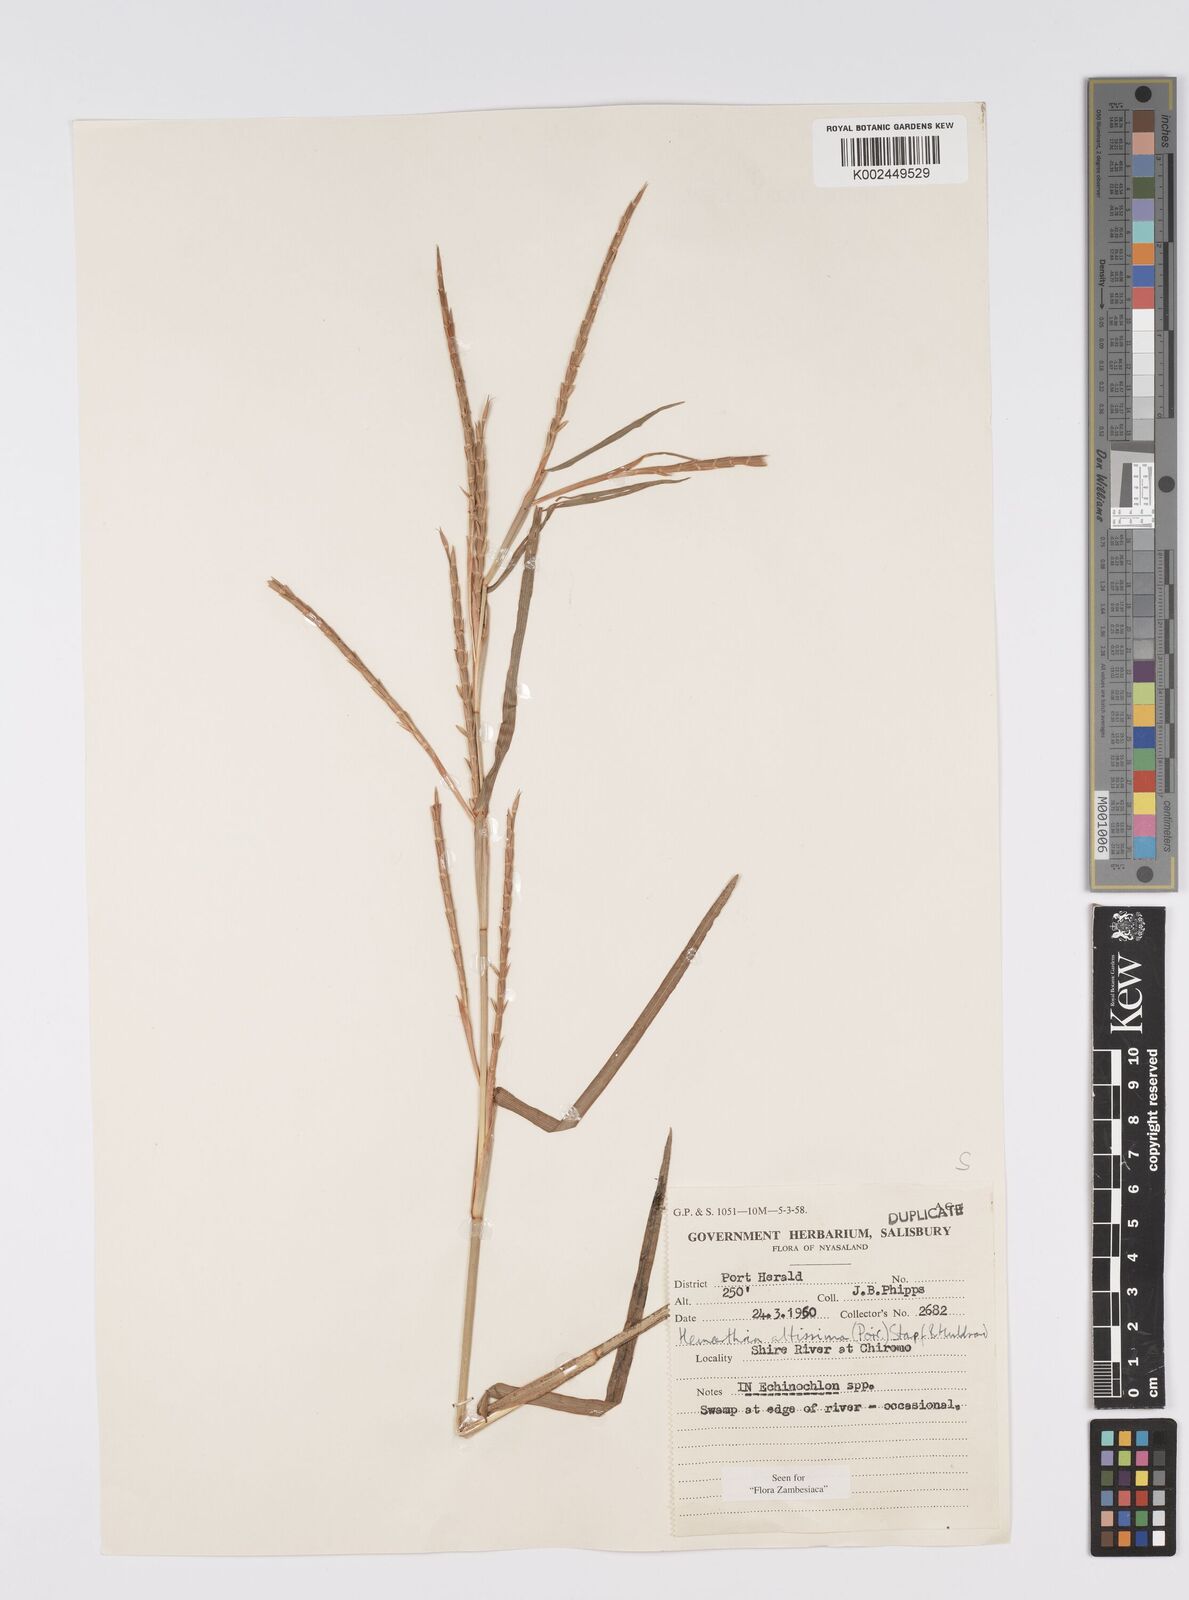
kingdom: Plantae
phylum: Tracheophyta
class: Liliopsida
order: Poales
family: Poaceae
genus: Hemarthria
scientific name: Hemarthria altissima
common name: African jointgrass
